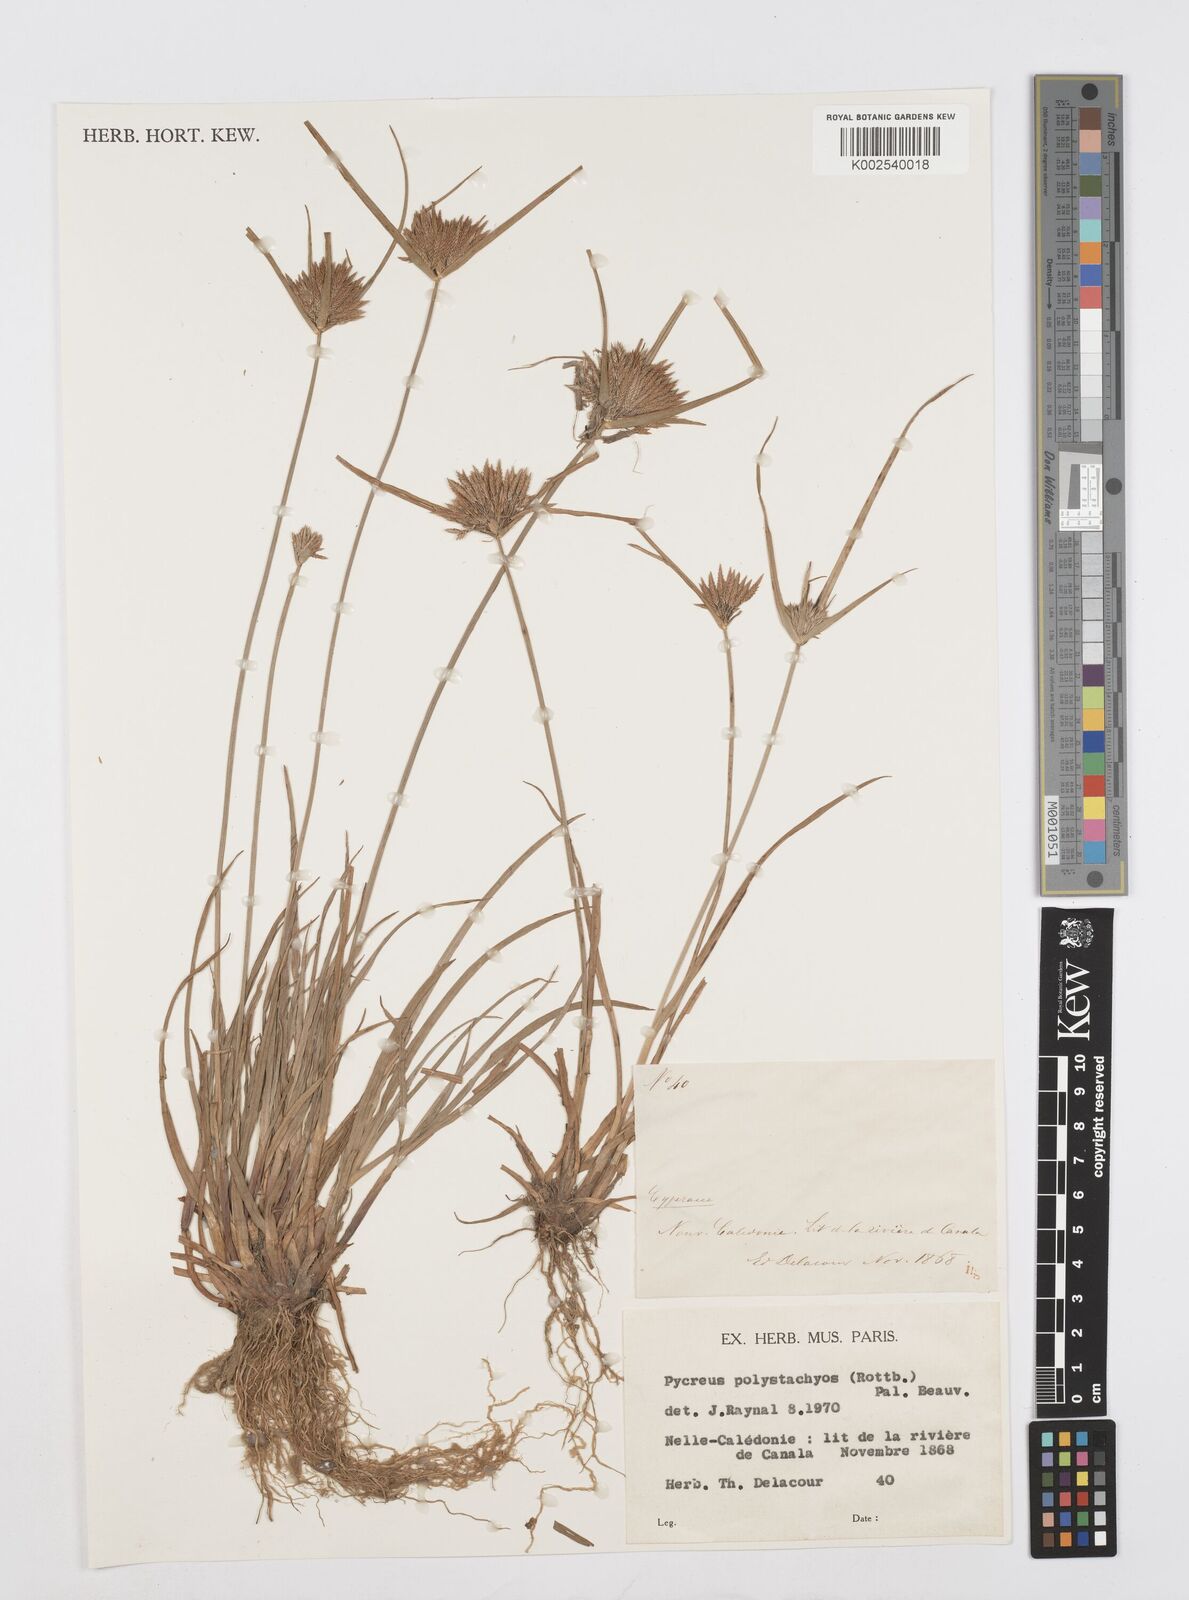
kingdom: Plantae
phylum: Tracheophyta
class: Liliopsida
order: Poales
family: Cyperaceae
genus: Cyperus
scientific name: Cyperus polystachyos
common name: Bunchy flat sedge
